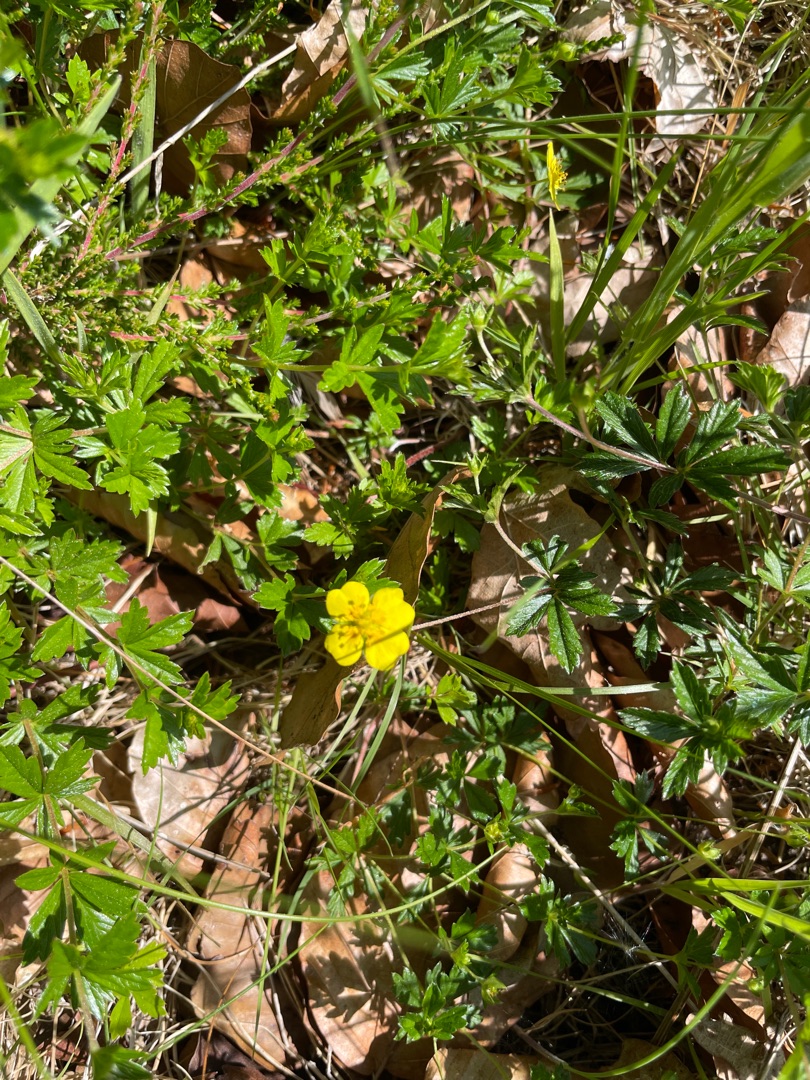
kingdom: Plantae
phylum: Tracheophyta
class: Magnoliopsida
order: Rosales
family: Rosaceae
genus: Potentilla
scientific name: Potentilla erecta
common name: Tormentil
